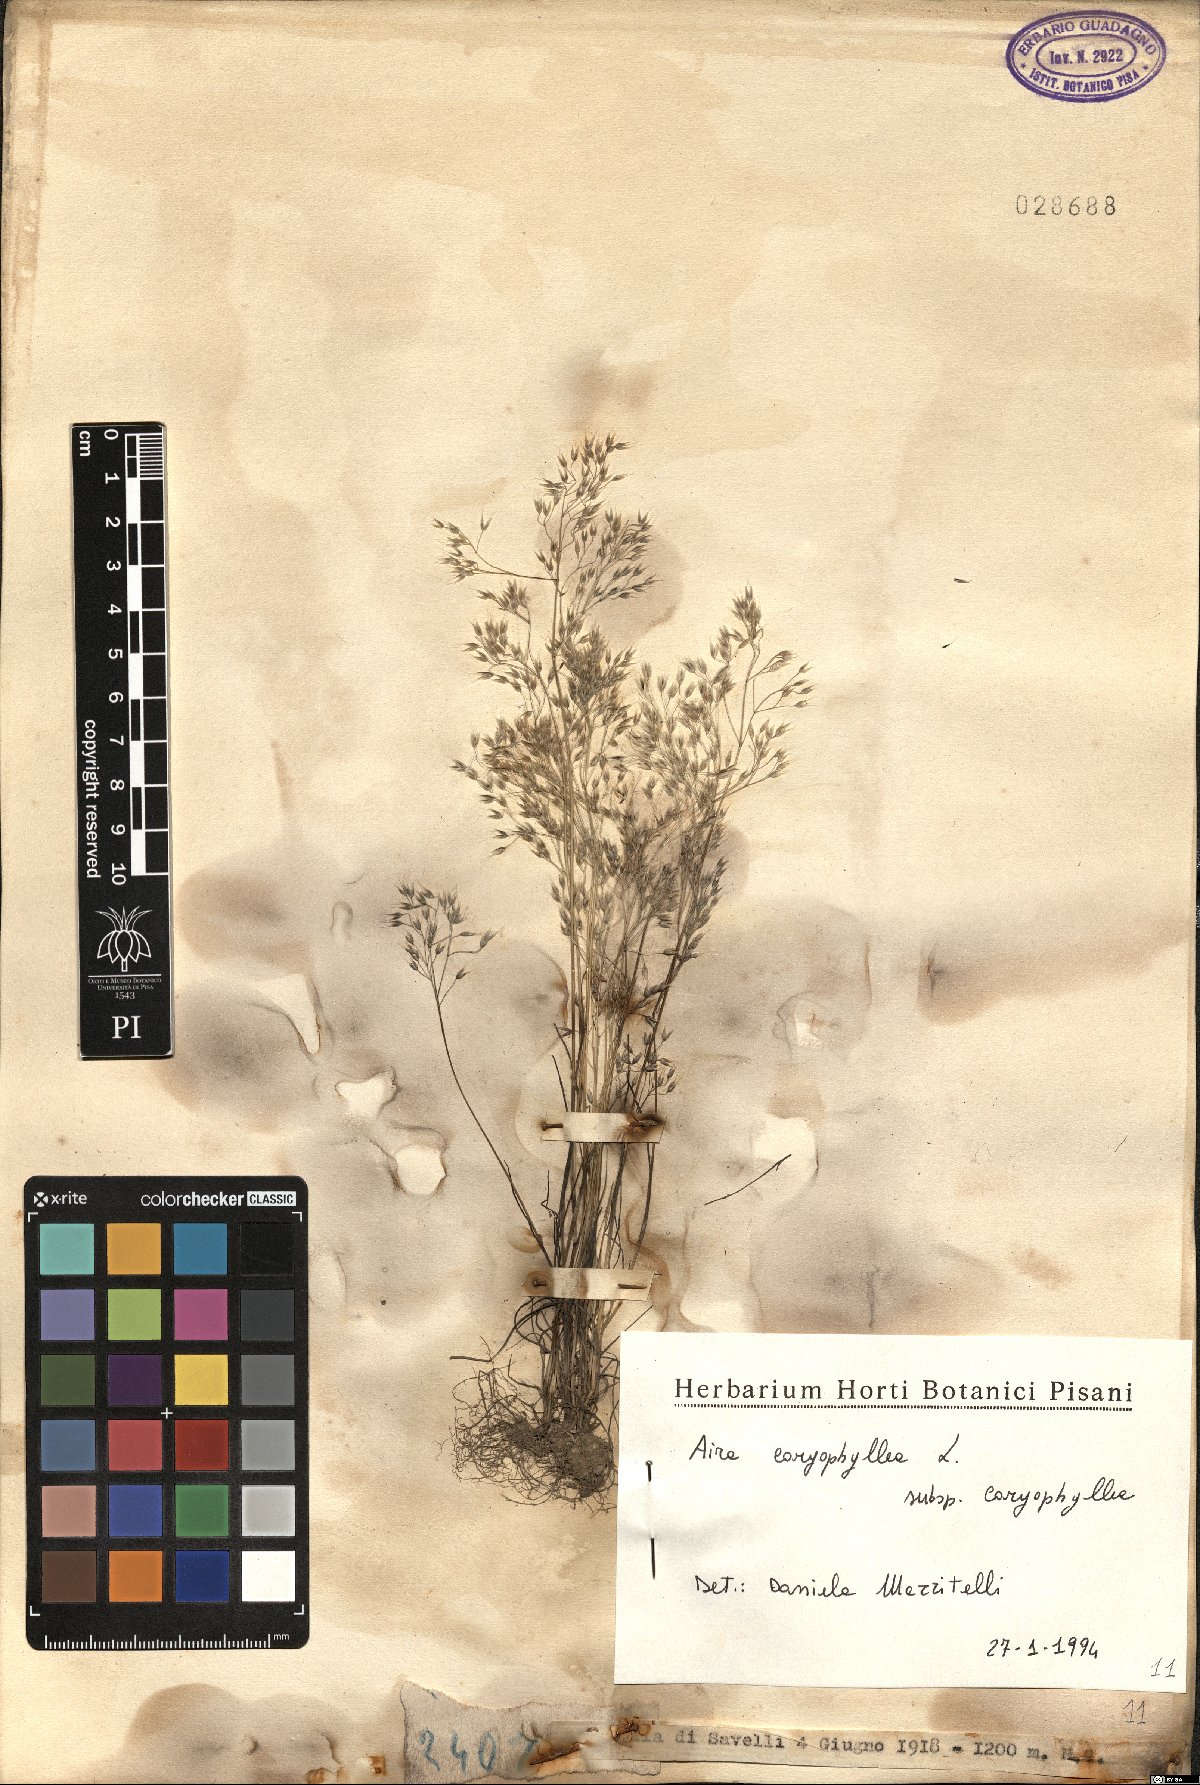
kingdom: Plantae
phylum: Tracheophyta
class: Liliopsida
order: Poales
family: Poaceae
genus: Aira
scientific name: Aira caryophyllea
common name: Silver hairgrass
